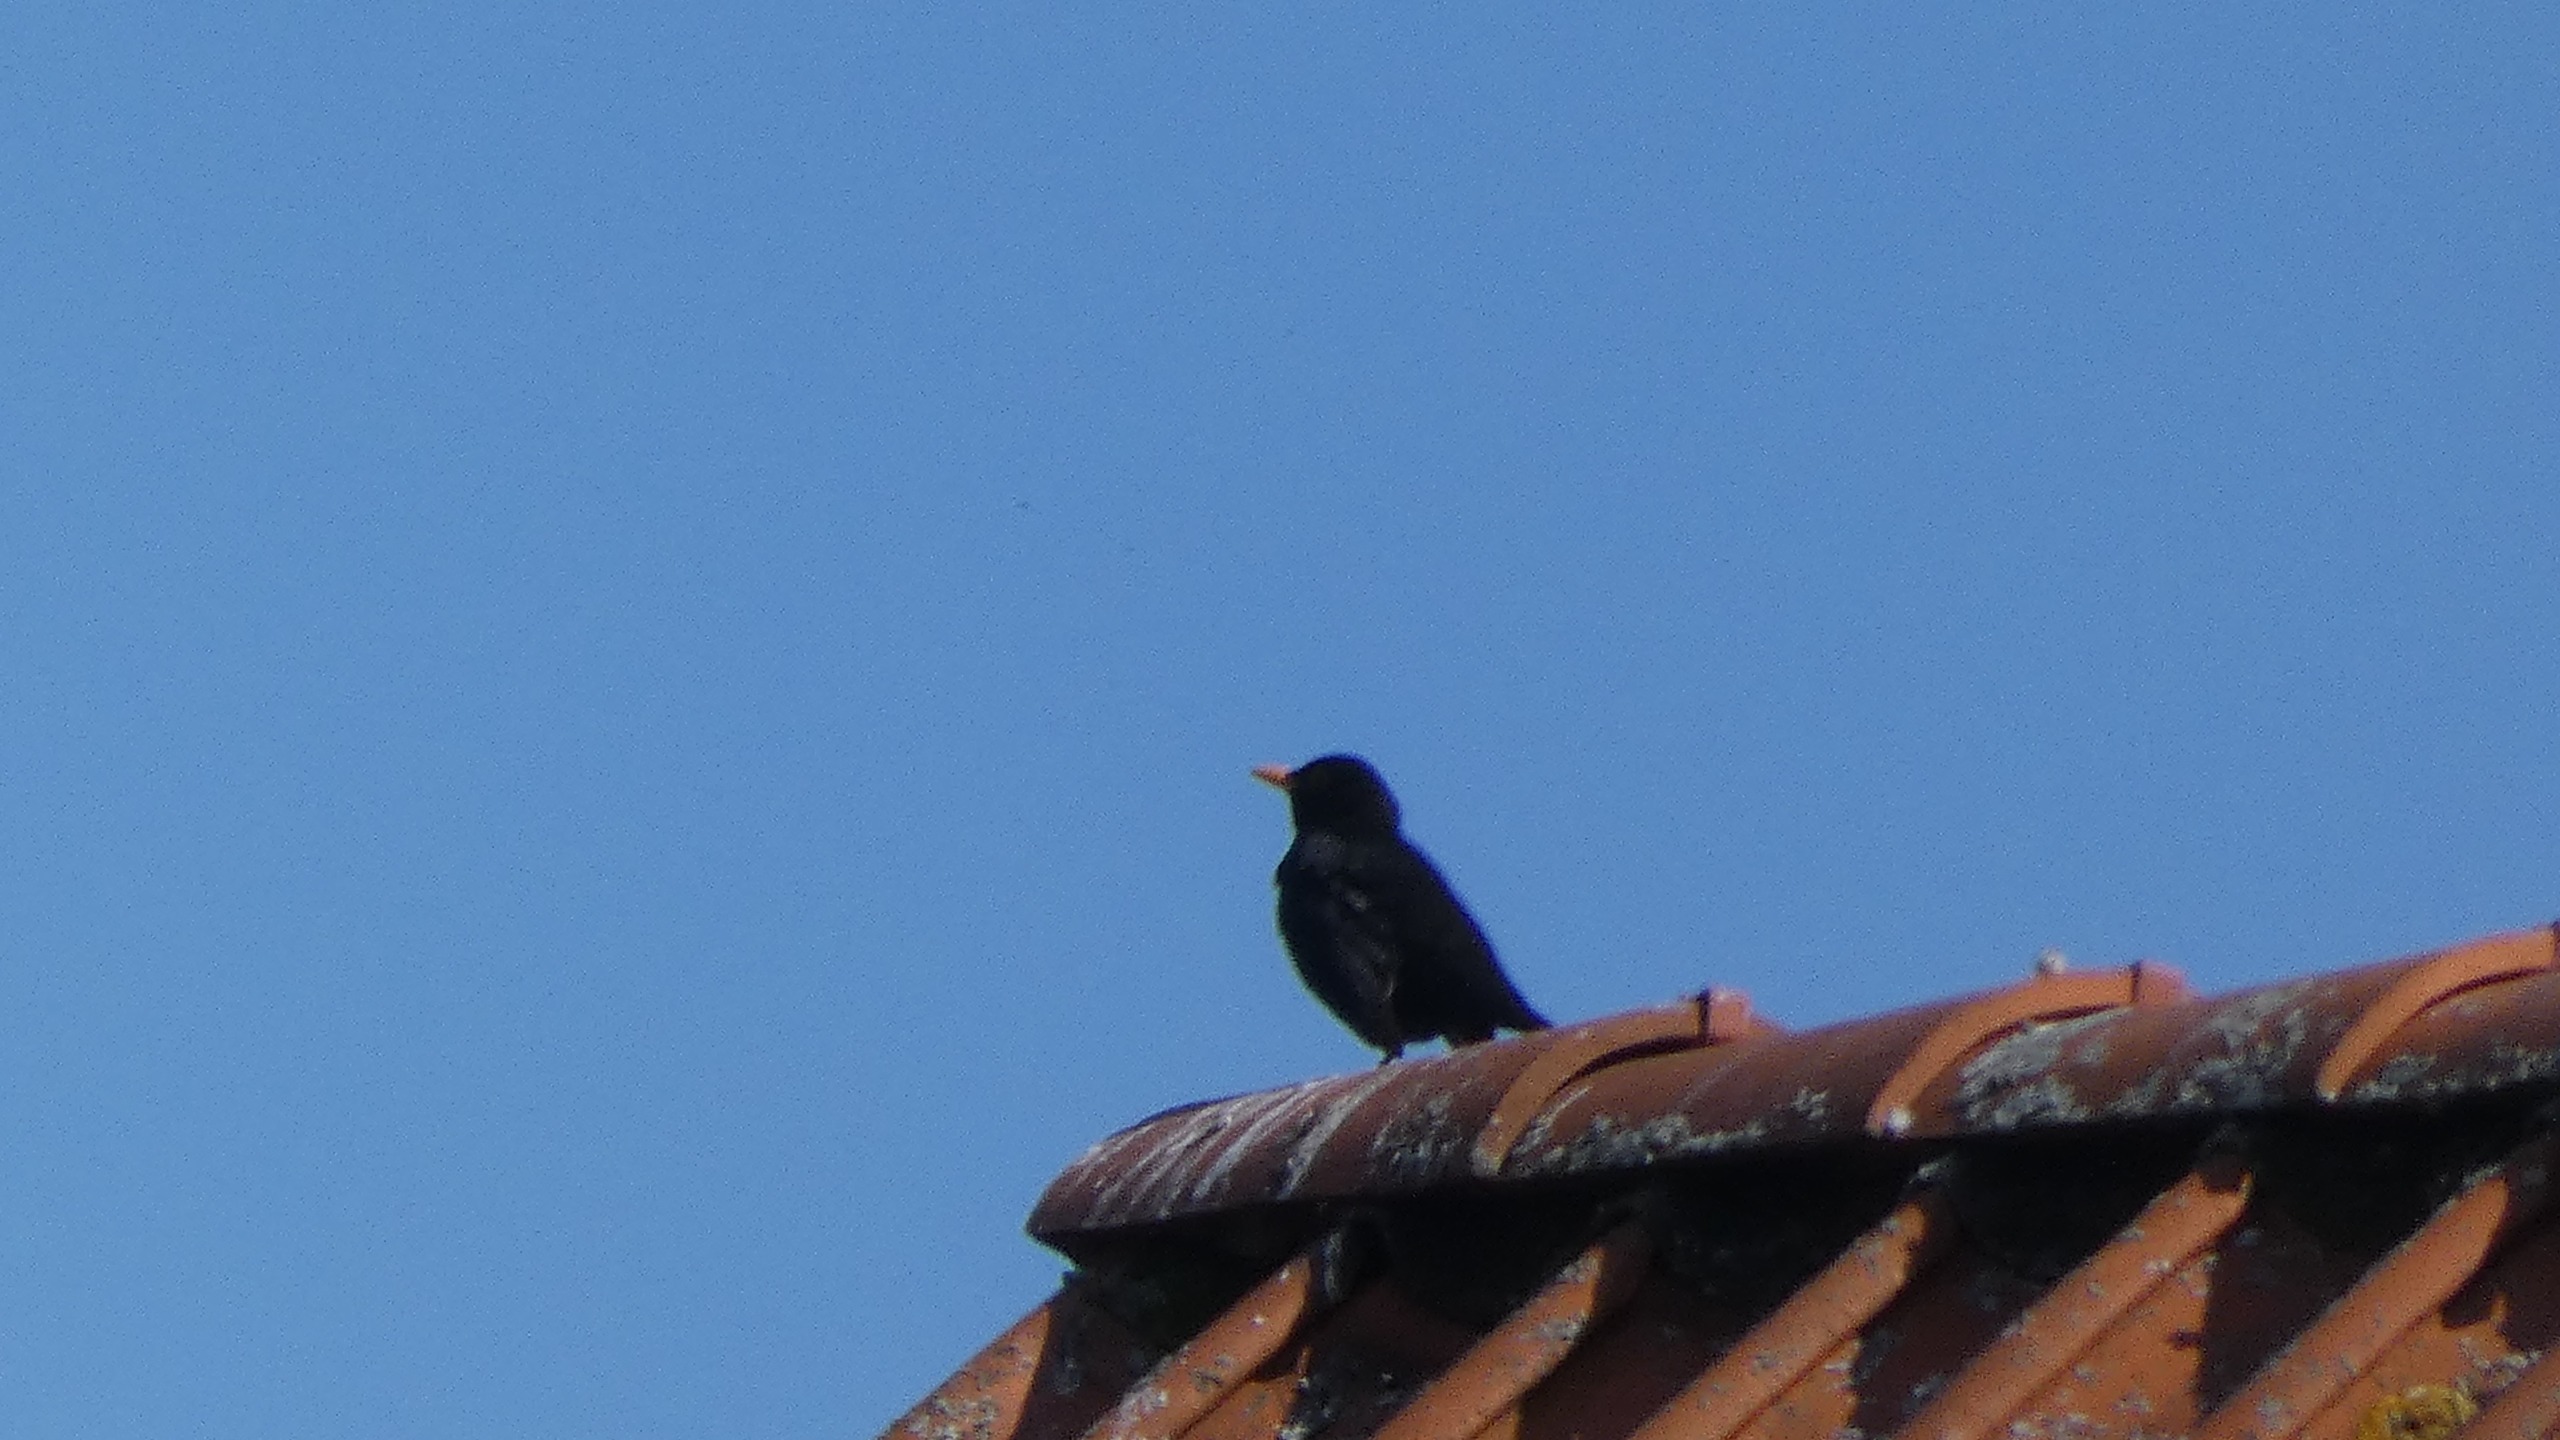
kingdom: Animalia
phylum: Chordata
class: Aves
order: Passeriformes
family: Turdidae
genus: Turdus
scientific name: Turdus merula
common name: Solsort
